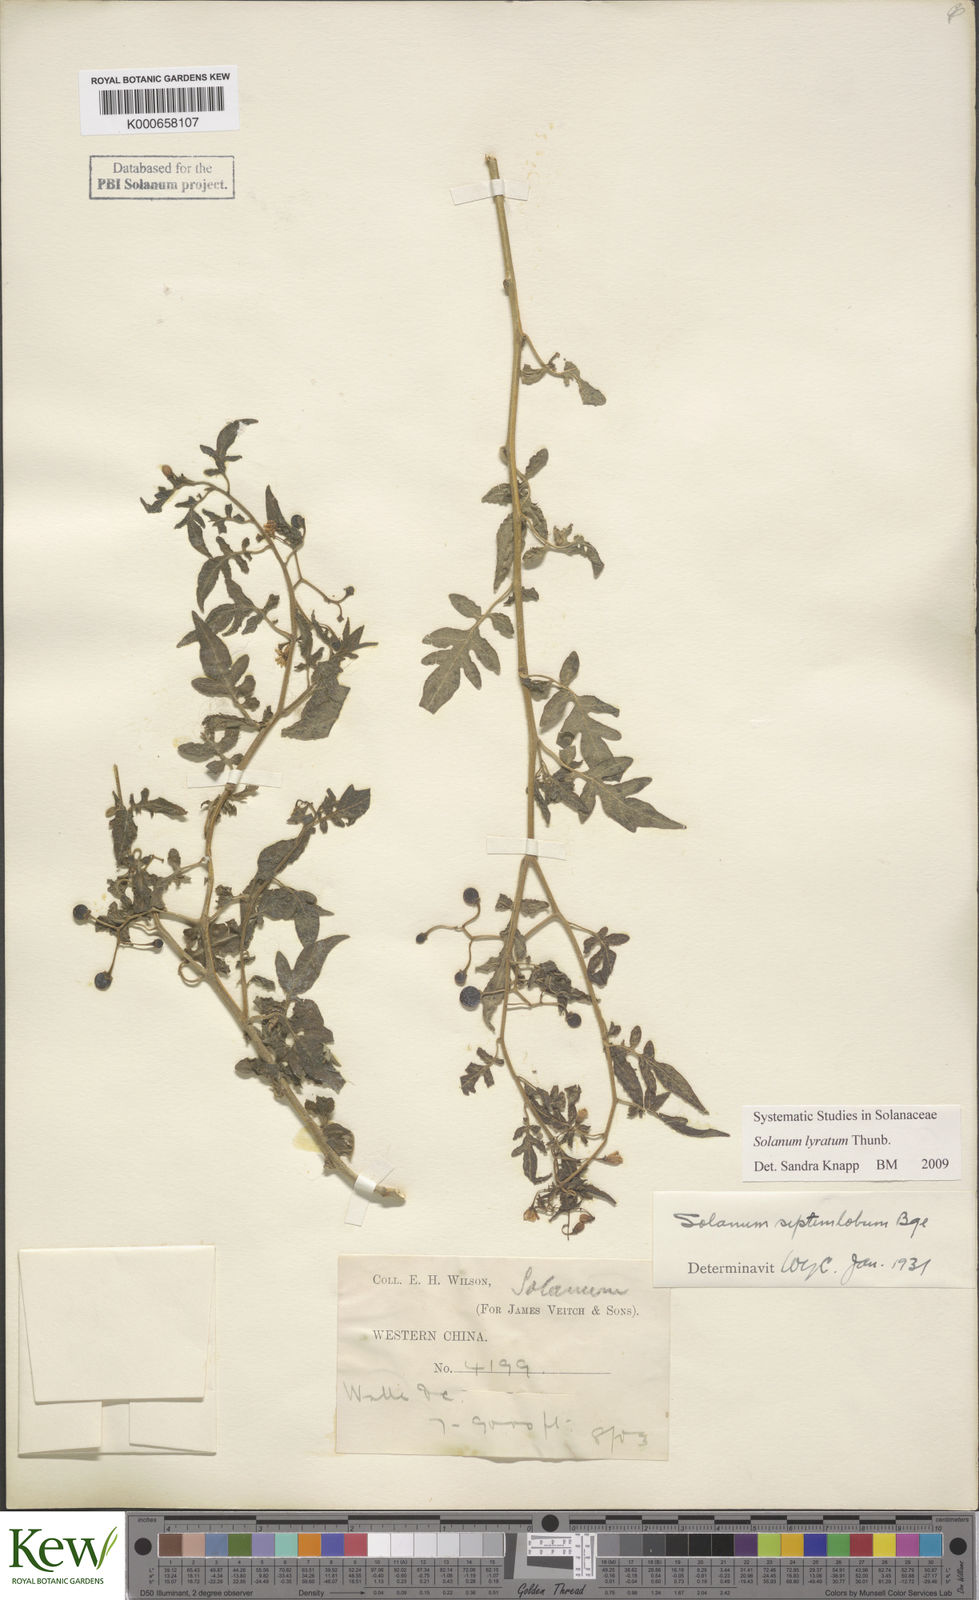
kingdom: Plantae
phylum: Tracheophyta
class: Magnoliopsida
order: Solanales
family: Solanaceae
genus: Solanum
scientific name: Solanum septemlobum
